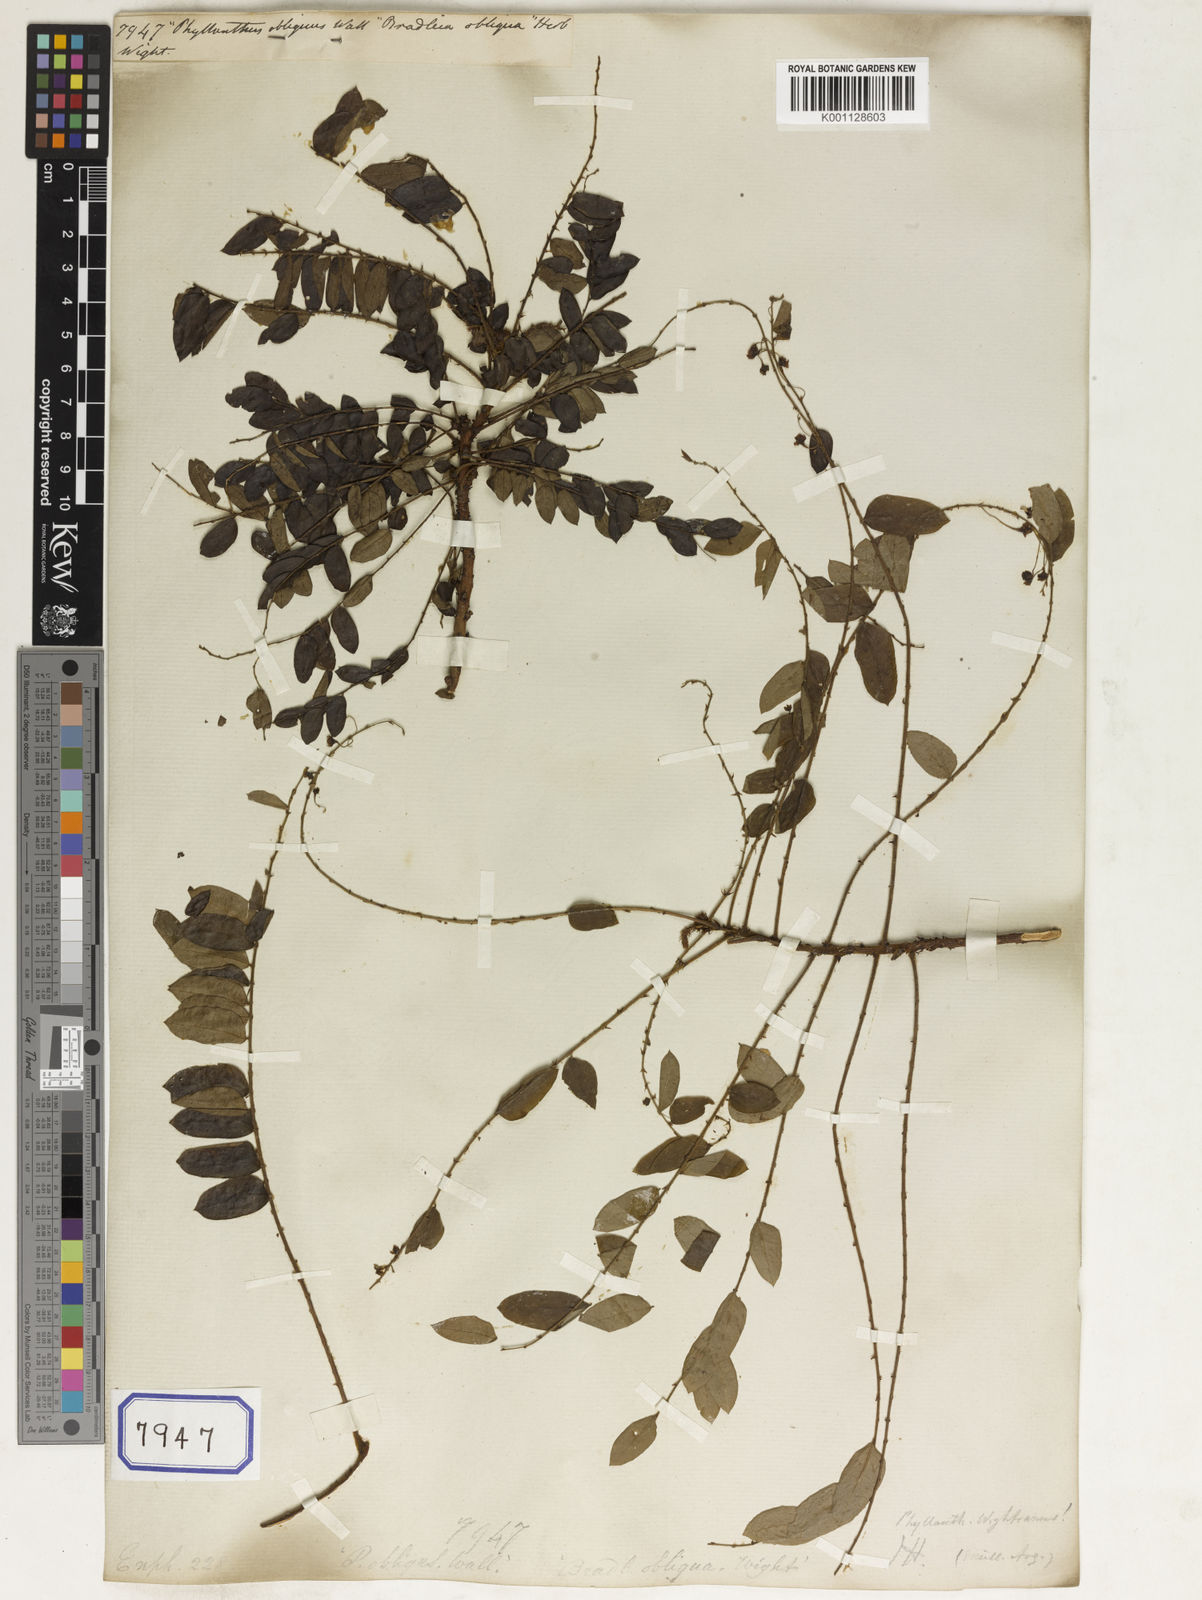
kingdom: Plantae
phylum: Tracheophyta
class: Magnoliopsida
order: Malpighiales
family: Euphorbiaceae
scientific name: Euphorbiaceae
